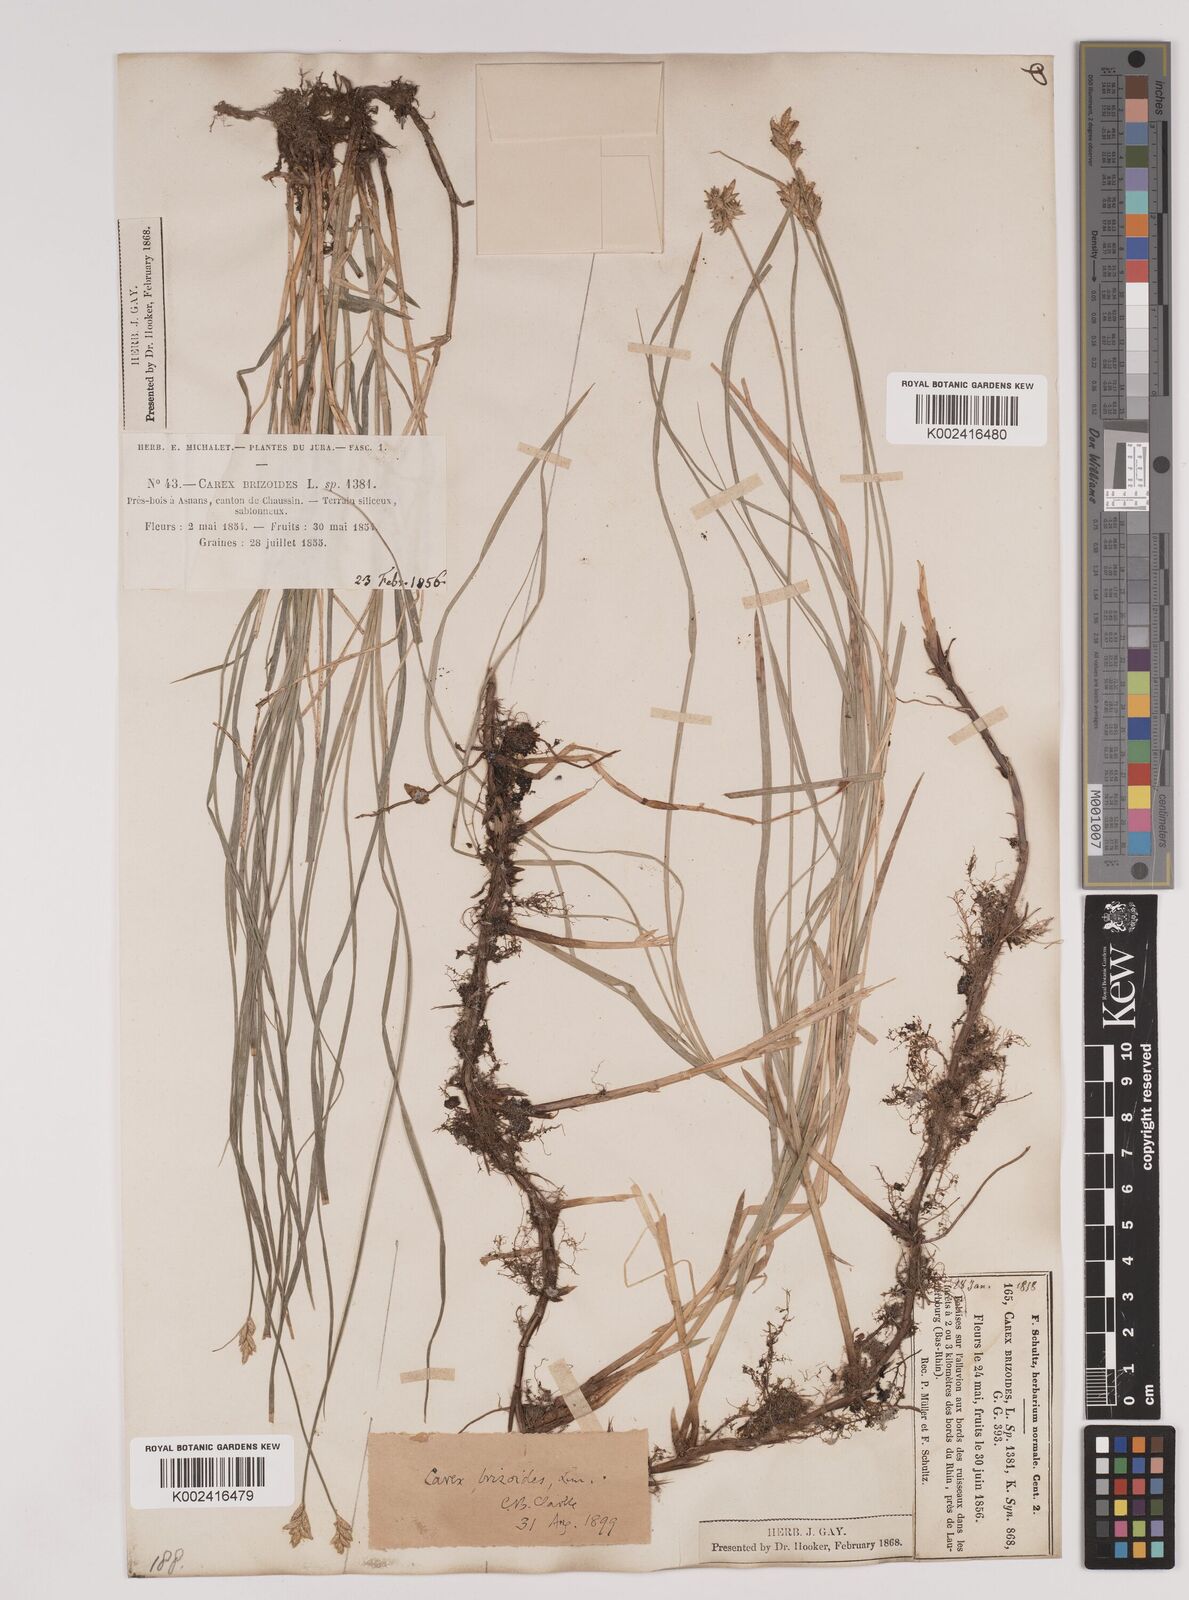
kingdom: Plantae
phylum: Tracheophyta
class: Liliopsida
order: Poales
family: Cyperaceae
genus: Carex
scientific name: Carex brizoides
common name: Quaking-grass sedge
